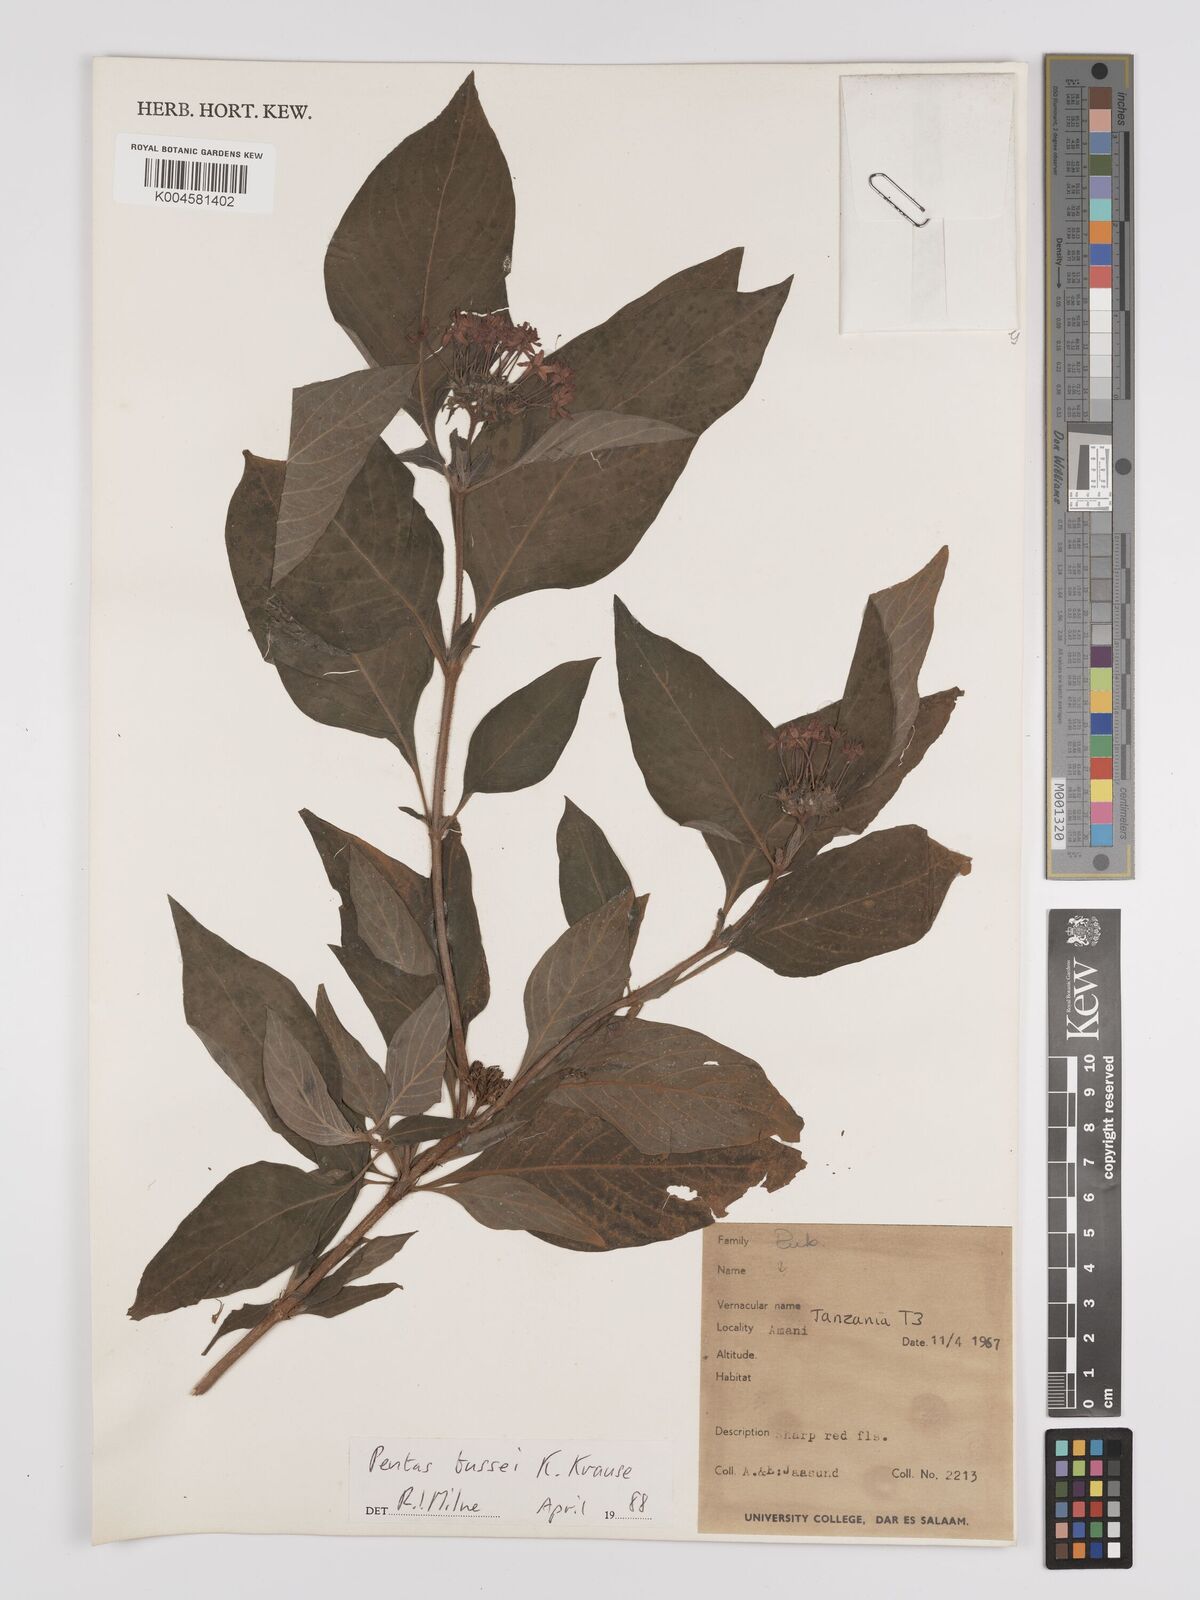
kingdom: Plantae
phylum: Tracheophyta
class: Magnoliopsida
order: Gentianales
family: Rubiaceae
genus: Rhodopentas
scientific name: Rhodopentas bussei
